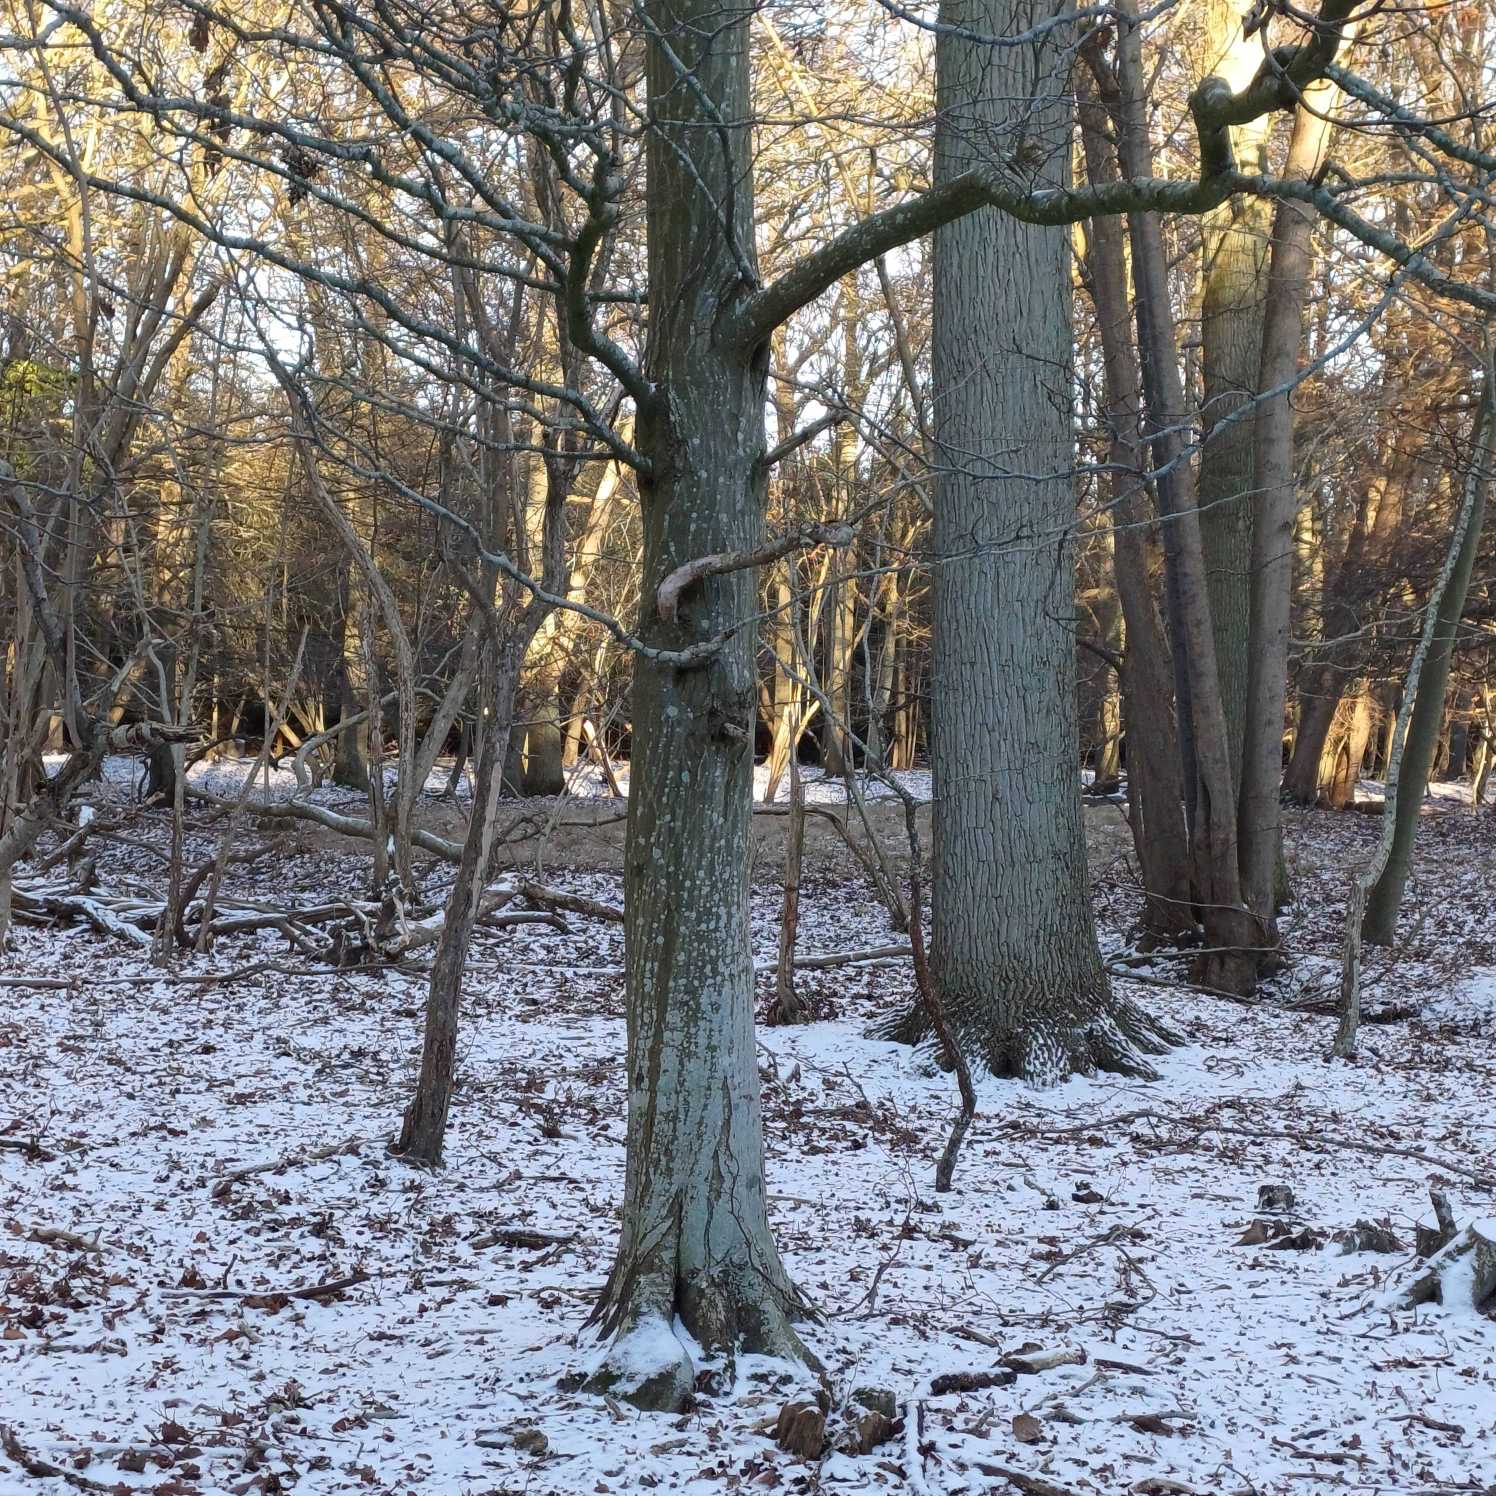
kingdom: Plantae
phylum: Tracheophyta
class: Magnoliopsida
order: Fagales
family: Betulaceae
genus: Carpinus
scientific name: Carpinus betulus
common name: Avnbøg
